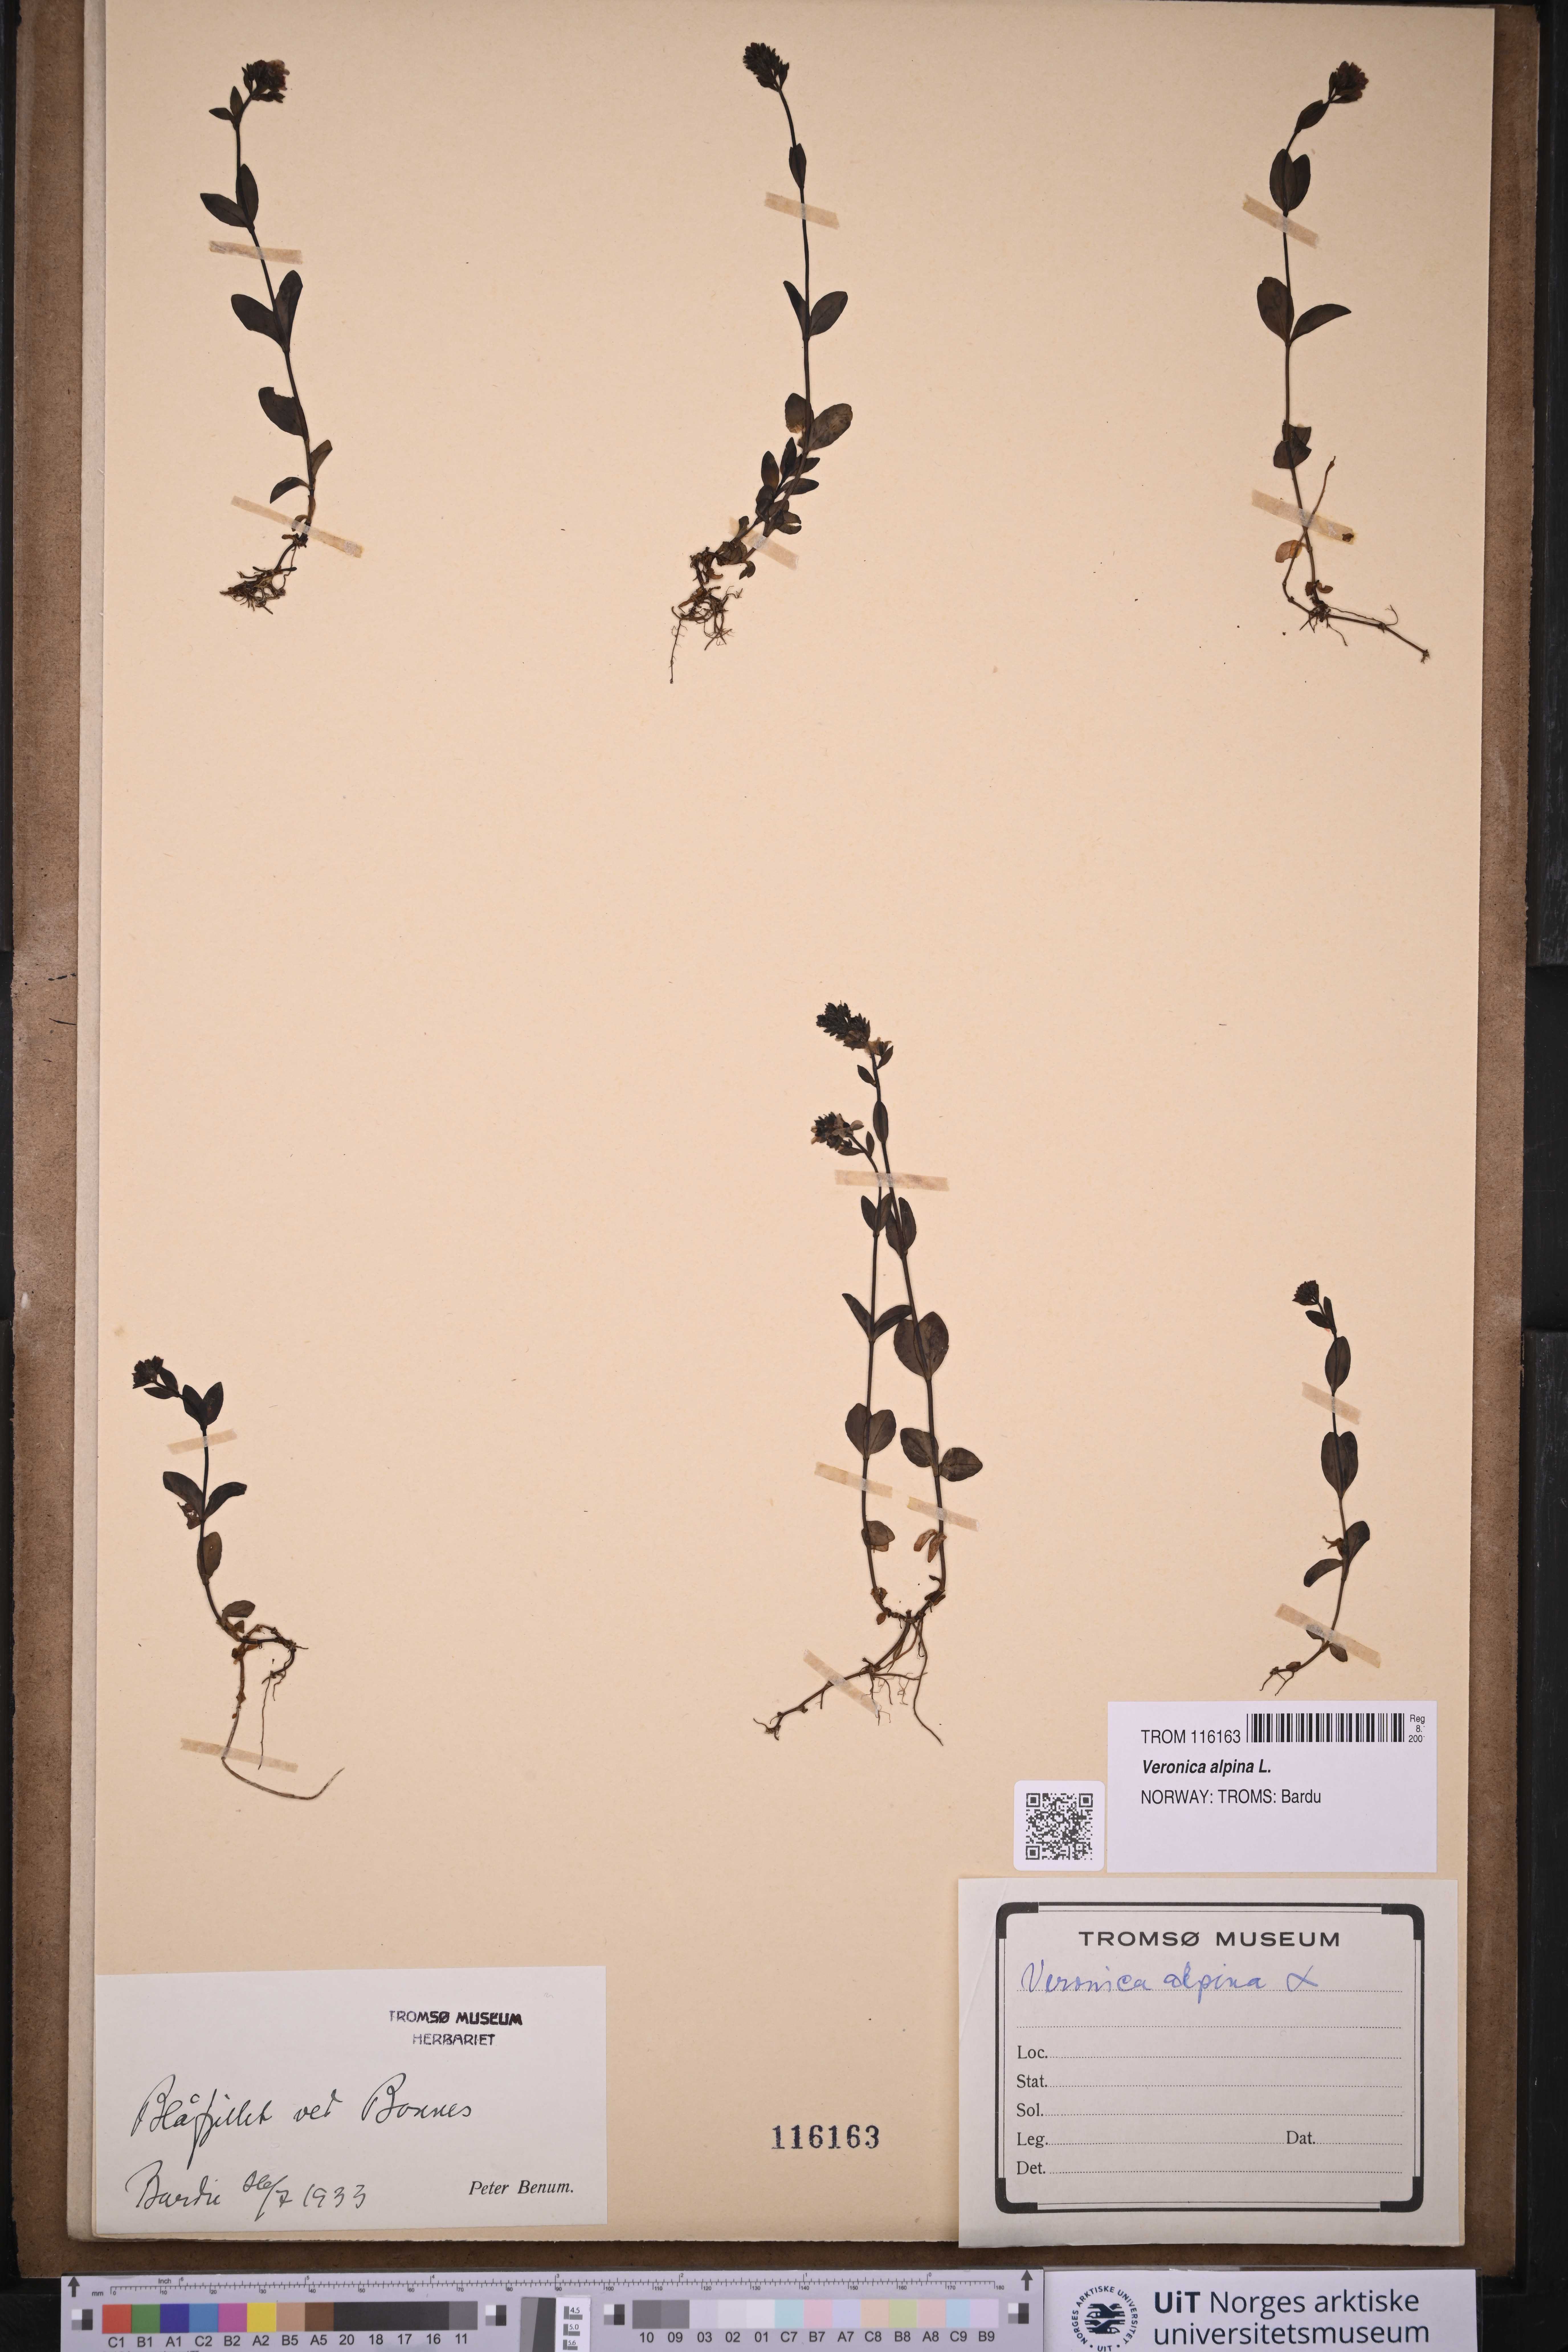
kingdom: Plantae
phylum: Tracheophyta
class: Magnoliopsida
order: Lamiales
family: Plantaginaceae
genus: Veronica
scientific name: Veronica alpina
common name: Alpine speedwell
